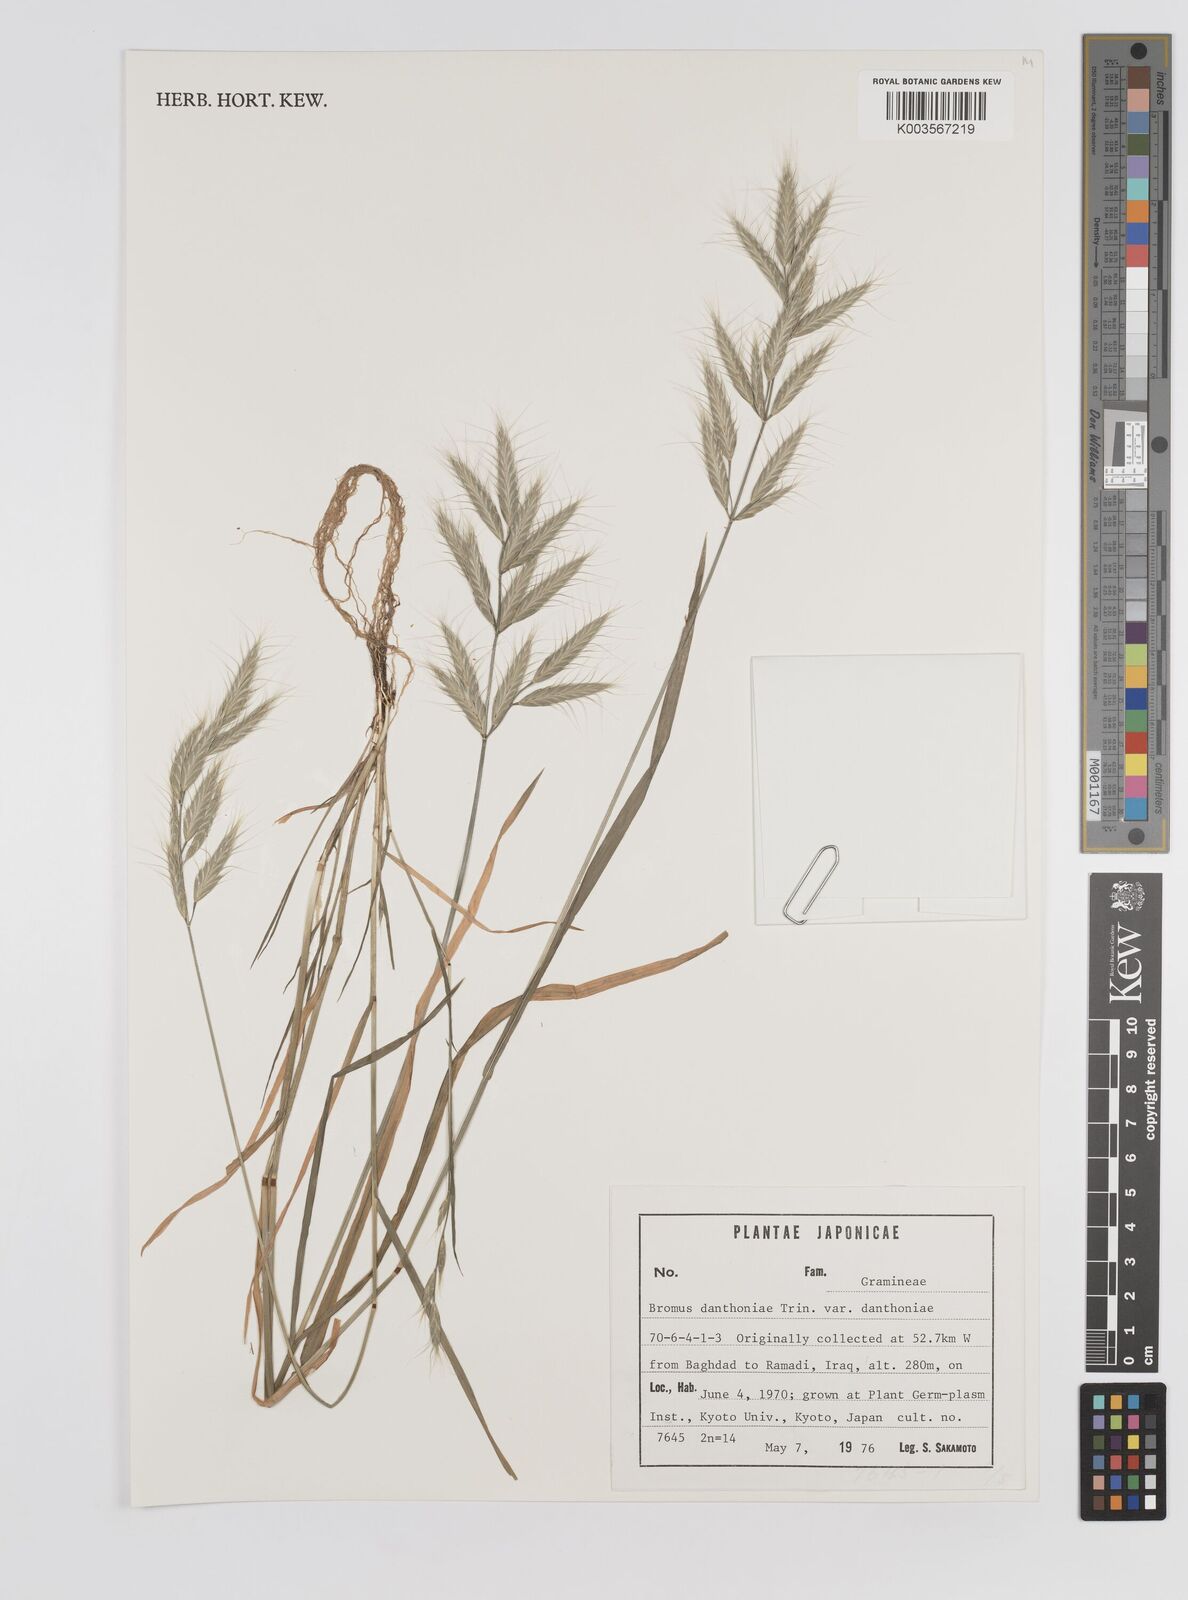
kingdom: Plantae
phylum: Tracheophyta
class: Liliopsida
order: Poales
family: Poaceae
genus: Bromus
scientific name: Bromus danthoniae
